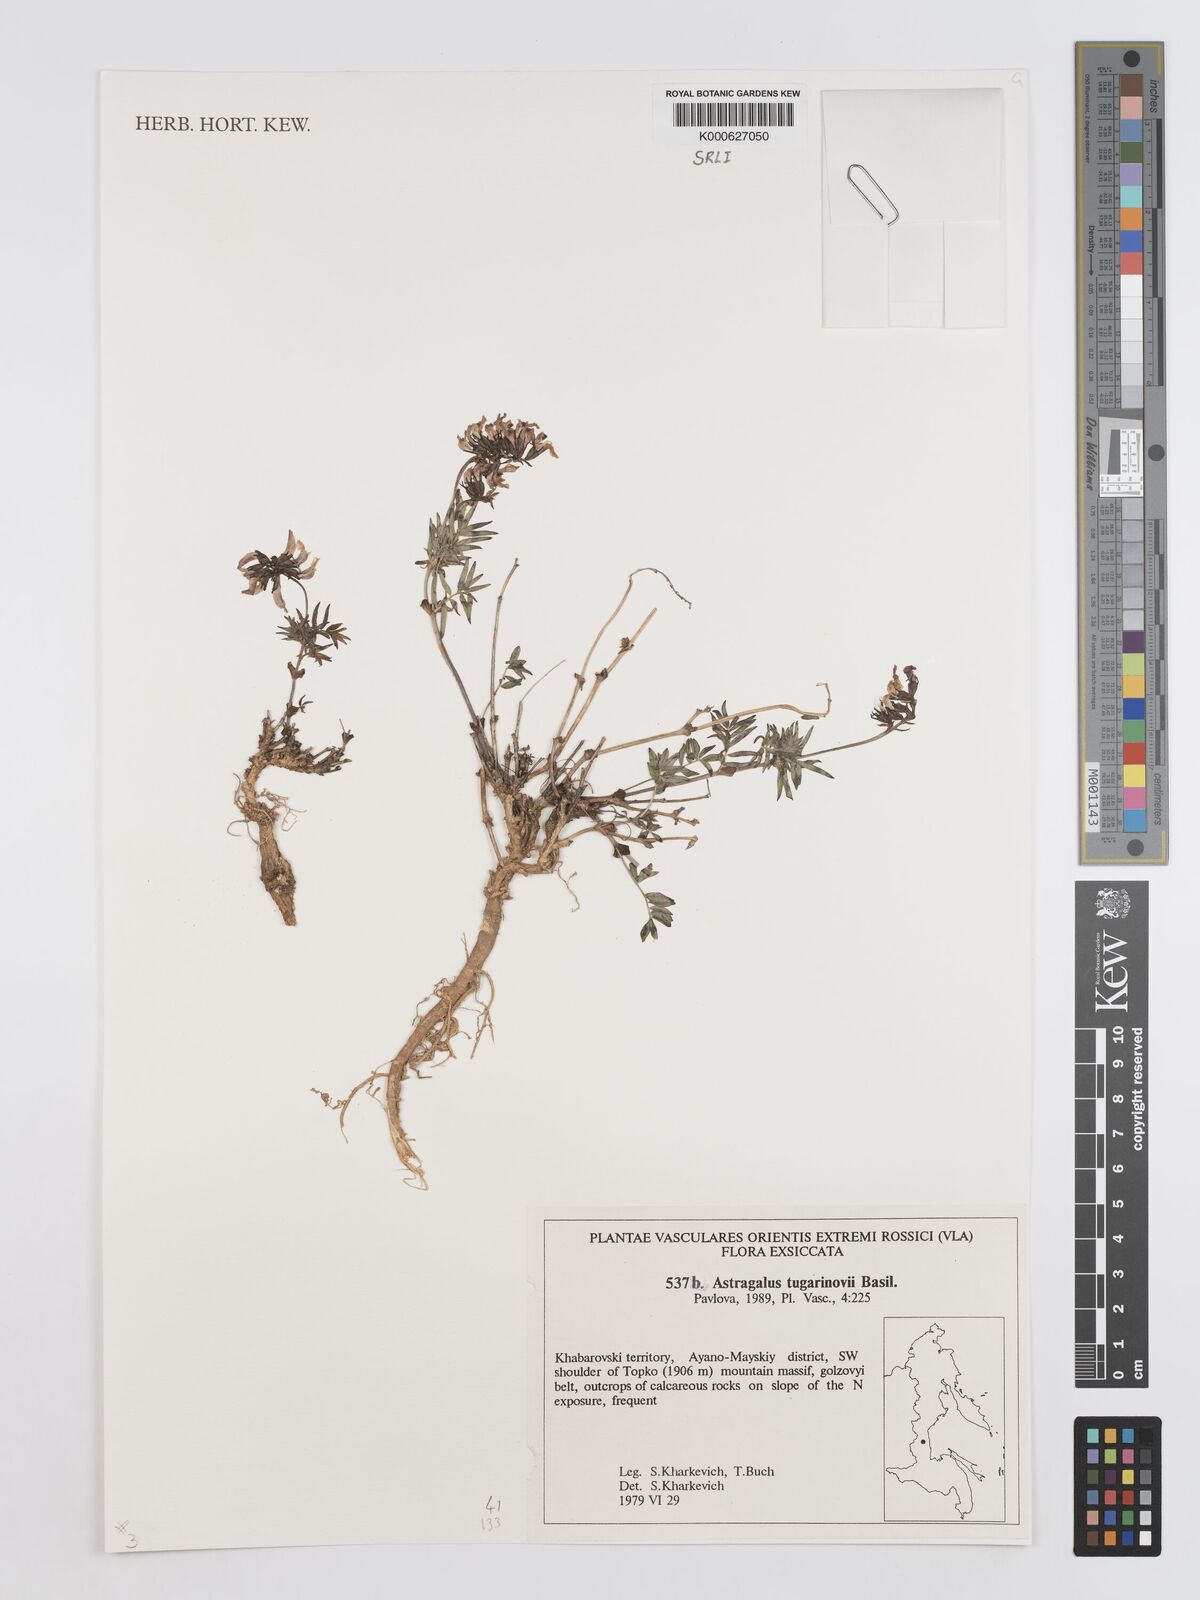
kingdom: Plantae
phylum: Tracheophyta
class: Magnoliopsida
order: Fabales
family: Fabaceae
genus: Astragalus
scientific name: Astragalus tugarinovii
